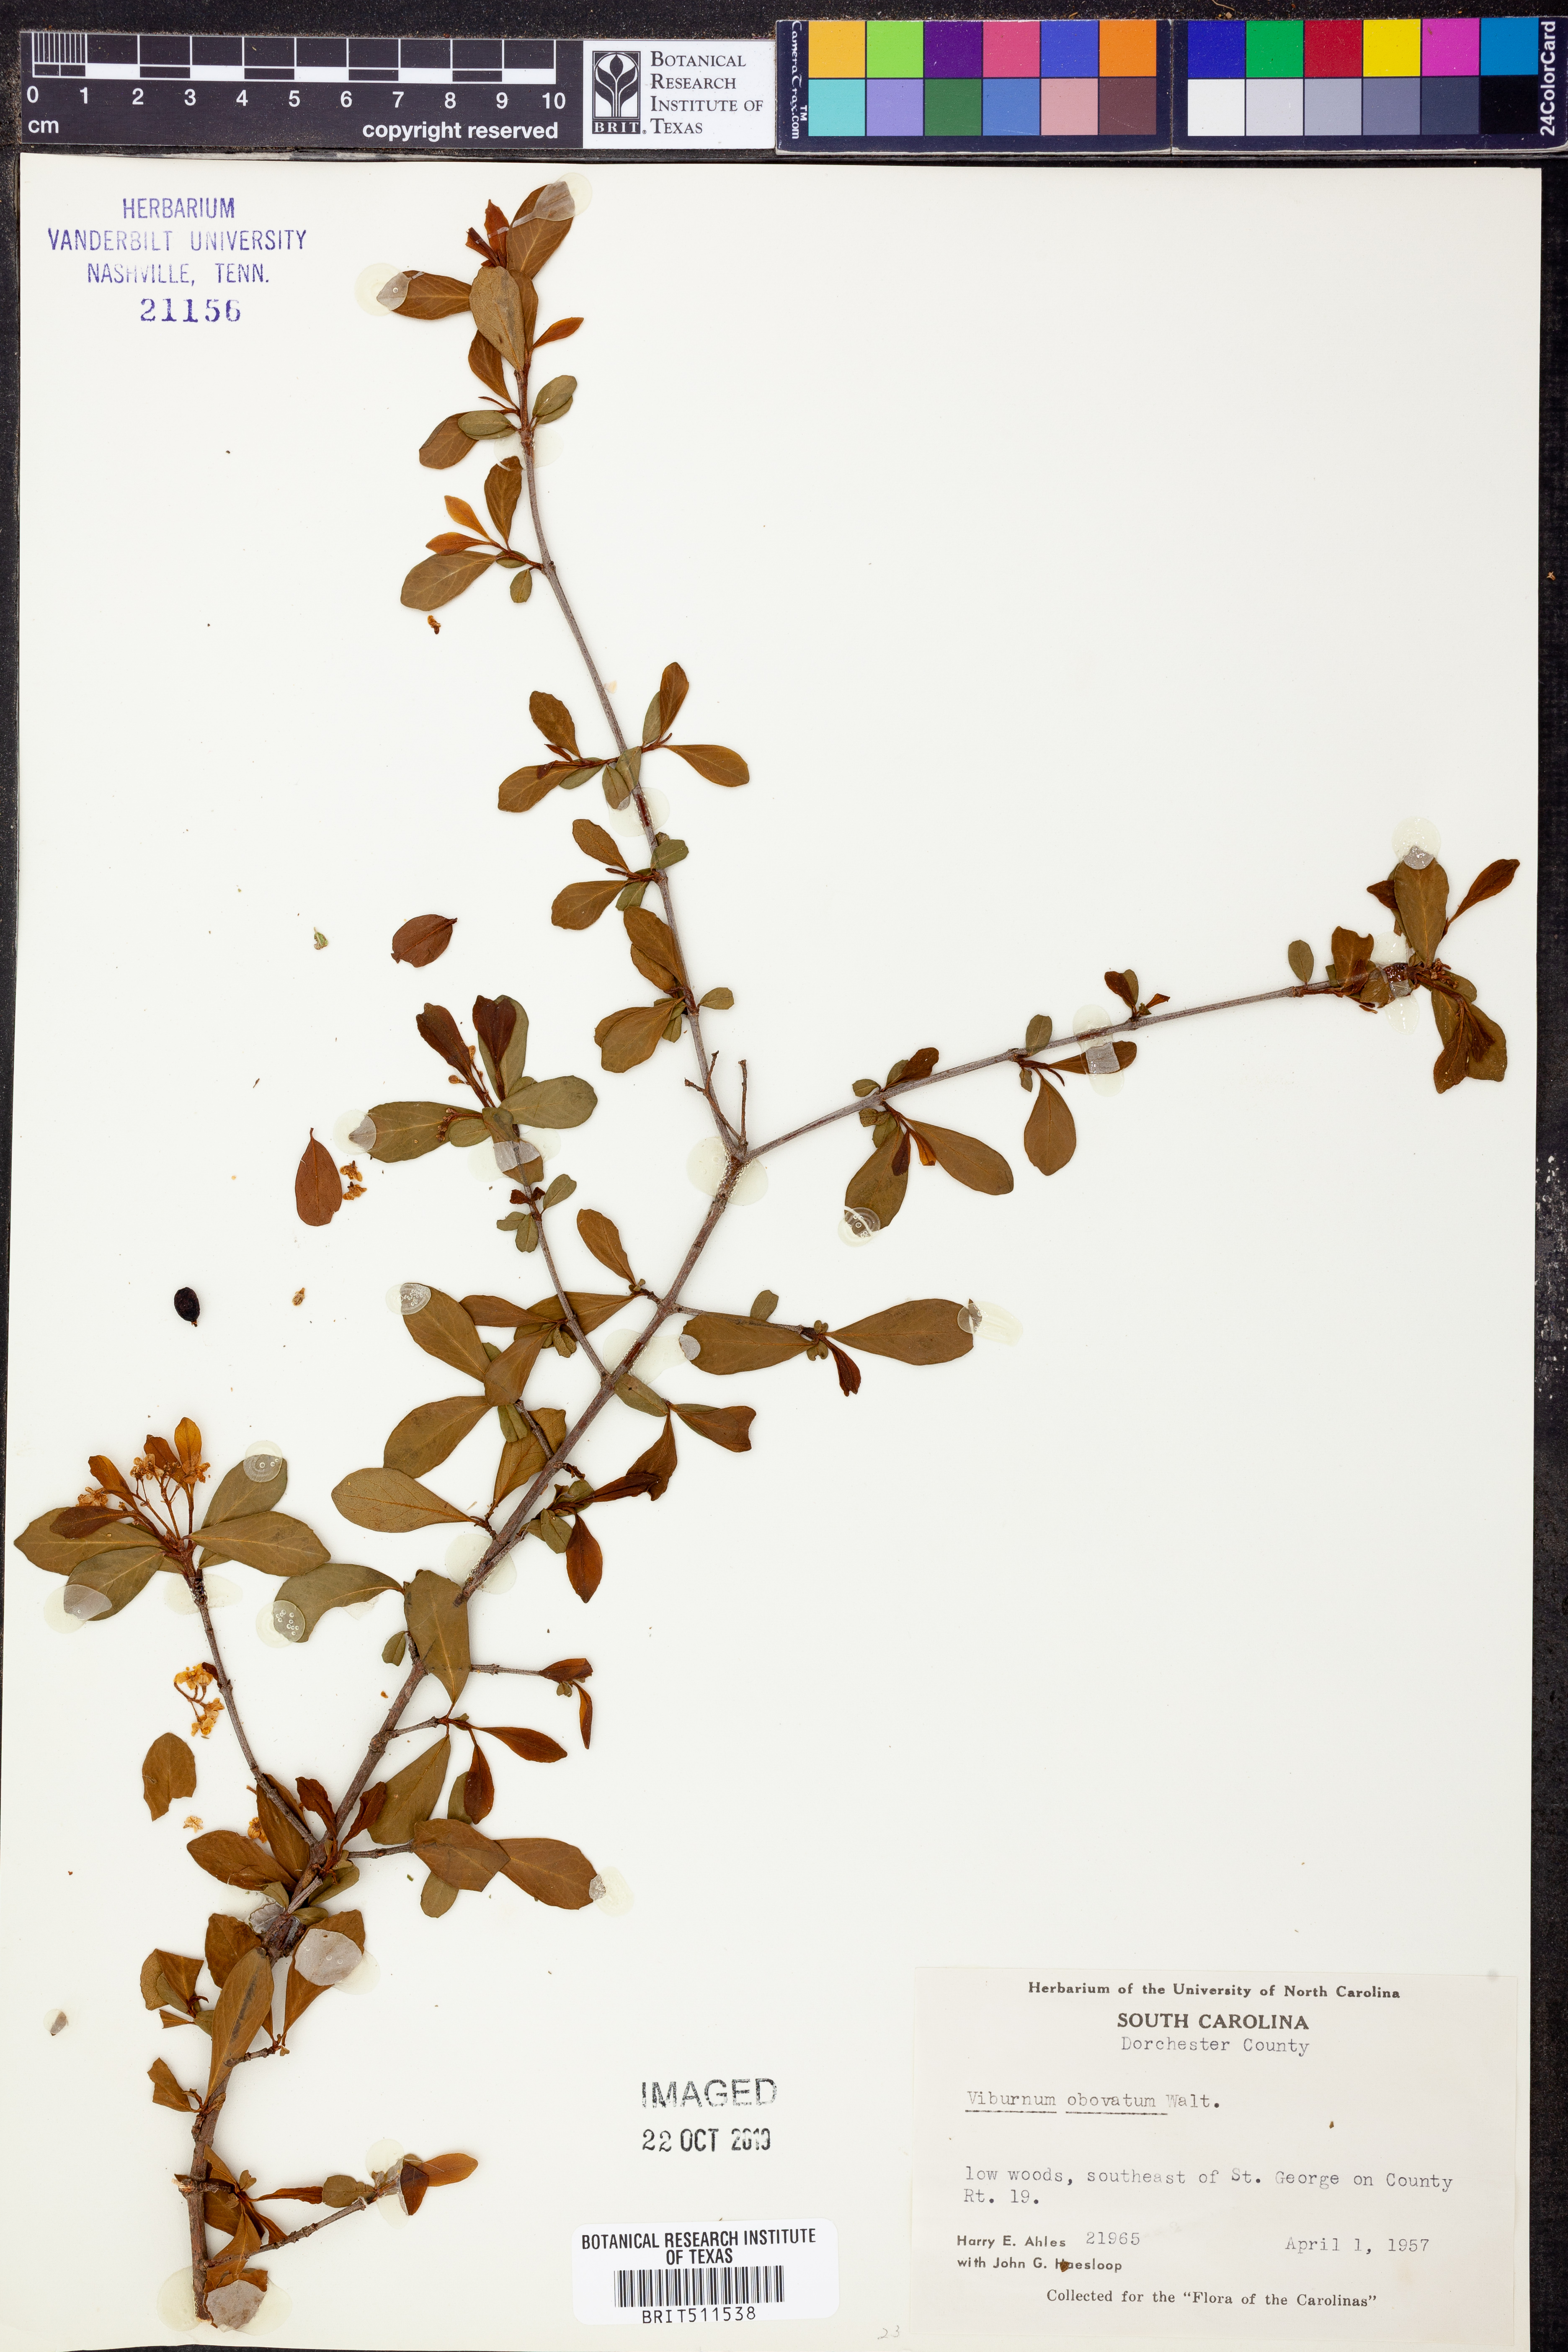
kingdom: Plantae
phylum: Tracheophyta
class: Magnoliopsida
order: Dipsacales
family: Viburnaceae
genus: Viburnum
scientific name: Viburnum obovatum
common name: Walter's viburnum
